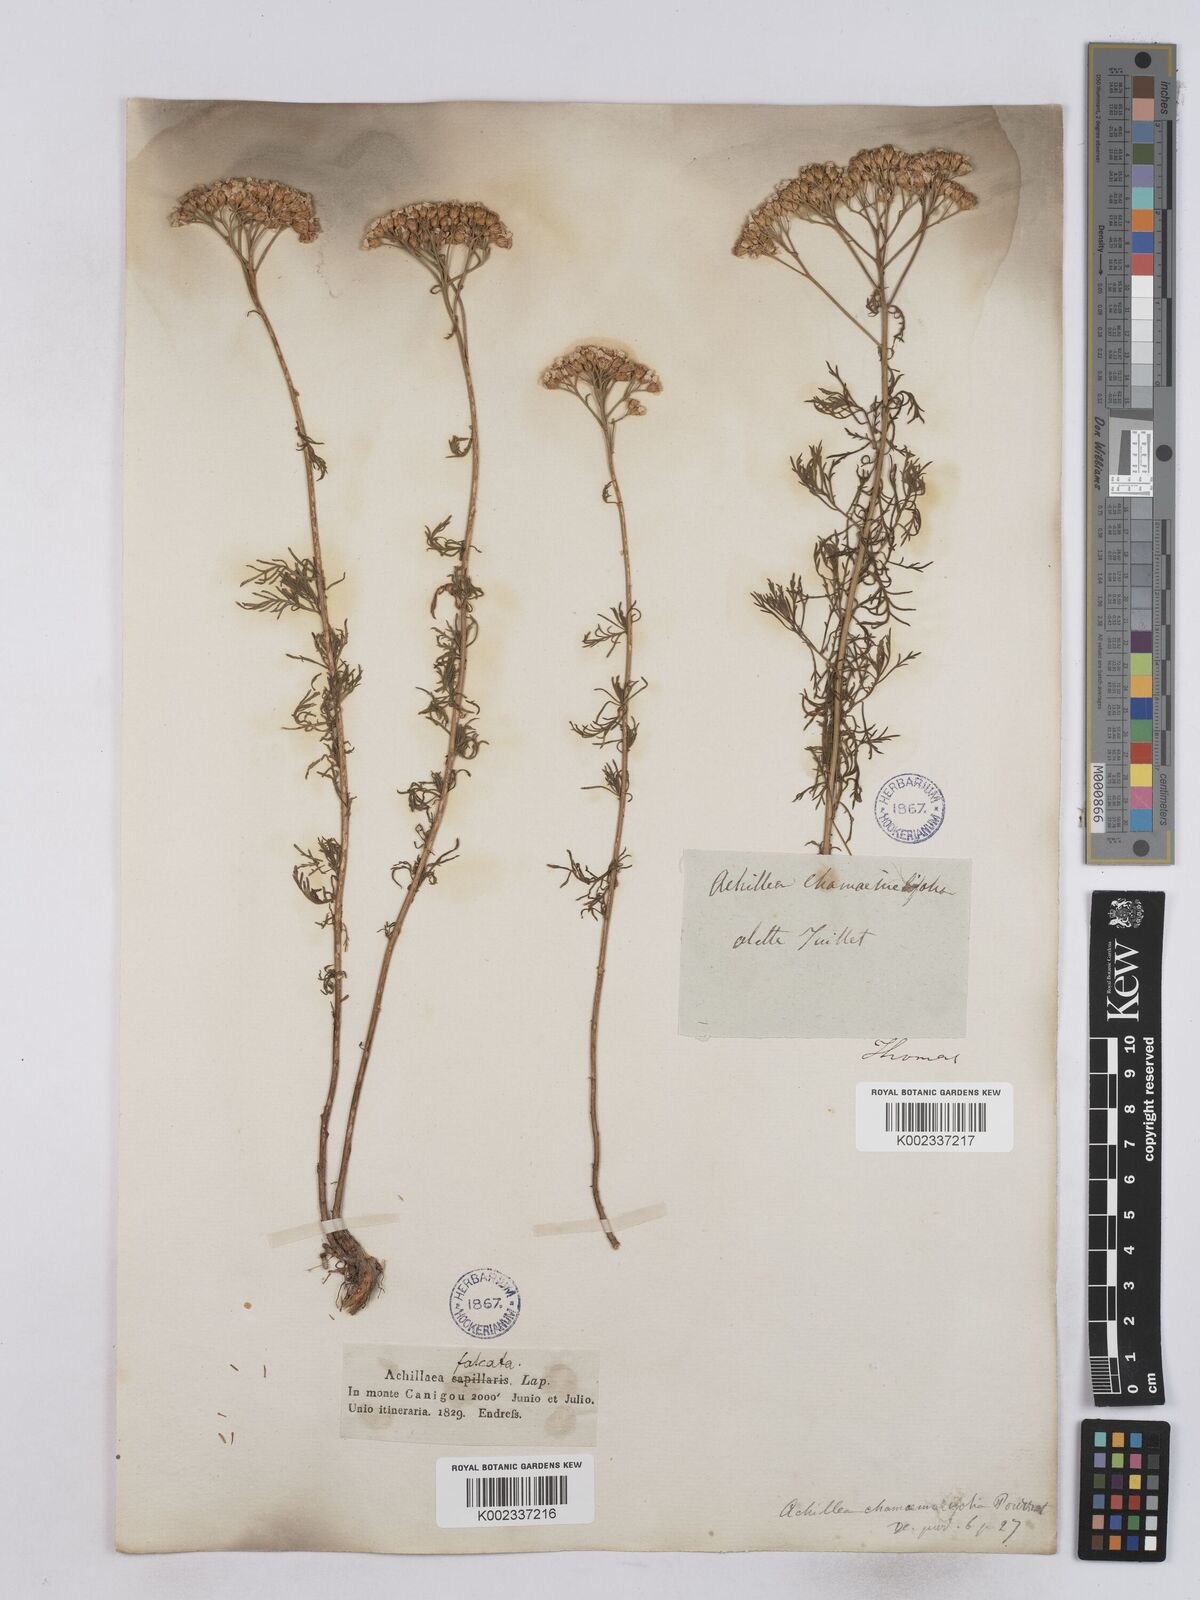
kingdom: Plantae
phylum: Tracheophyta
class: Magnoliopsida
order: Asterales
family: Asteraceae
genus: Achillea
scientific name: Achillea chamaemelifolia
